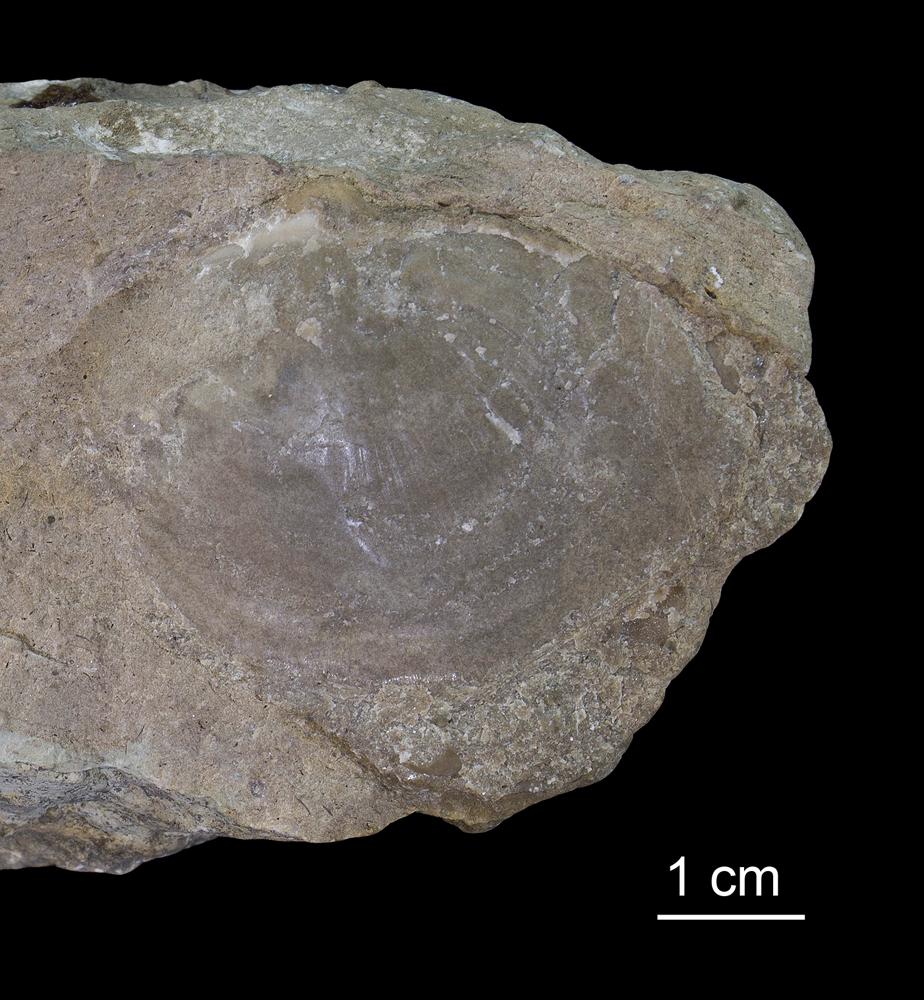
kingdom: Animalia
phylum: Mollusca
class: Bivalvia
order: Lucinida
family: Lucinidae
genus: Illionia
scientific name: Illionia Lucina prisca
